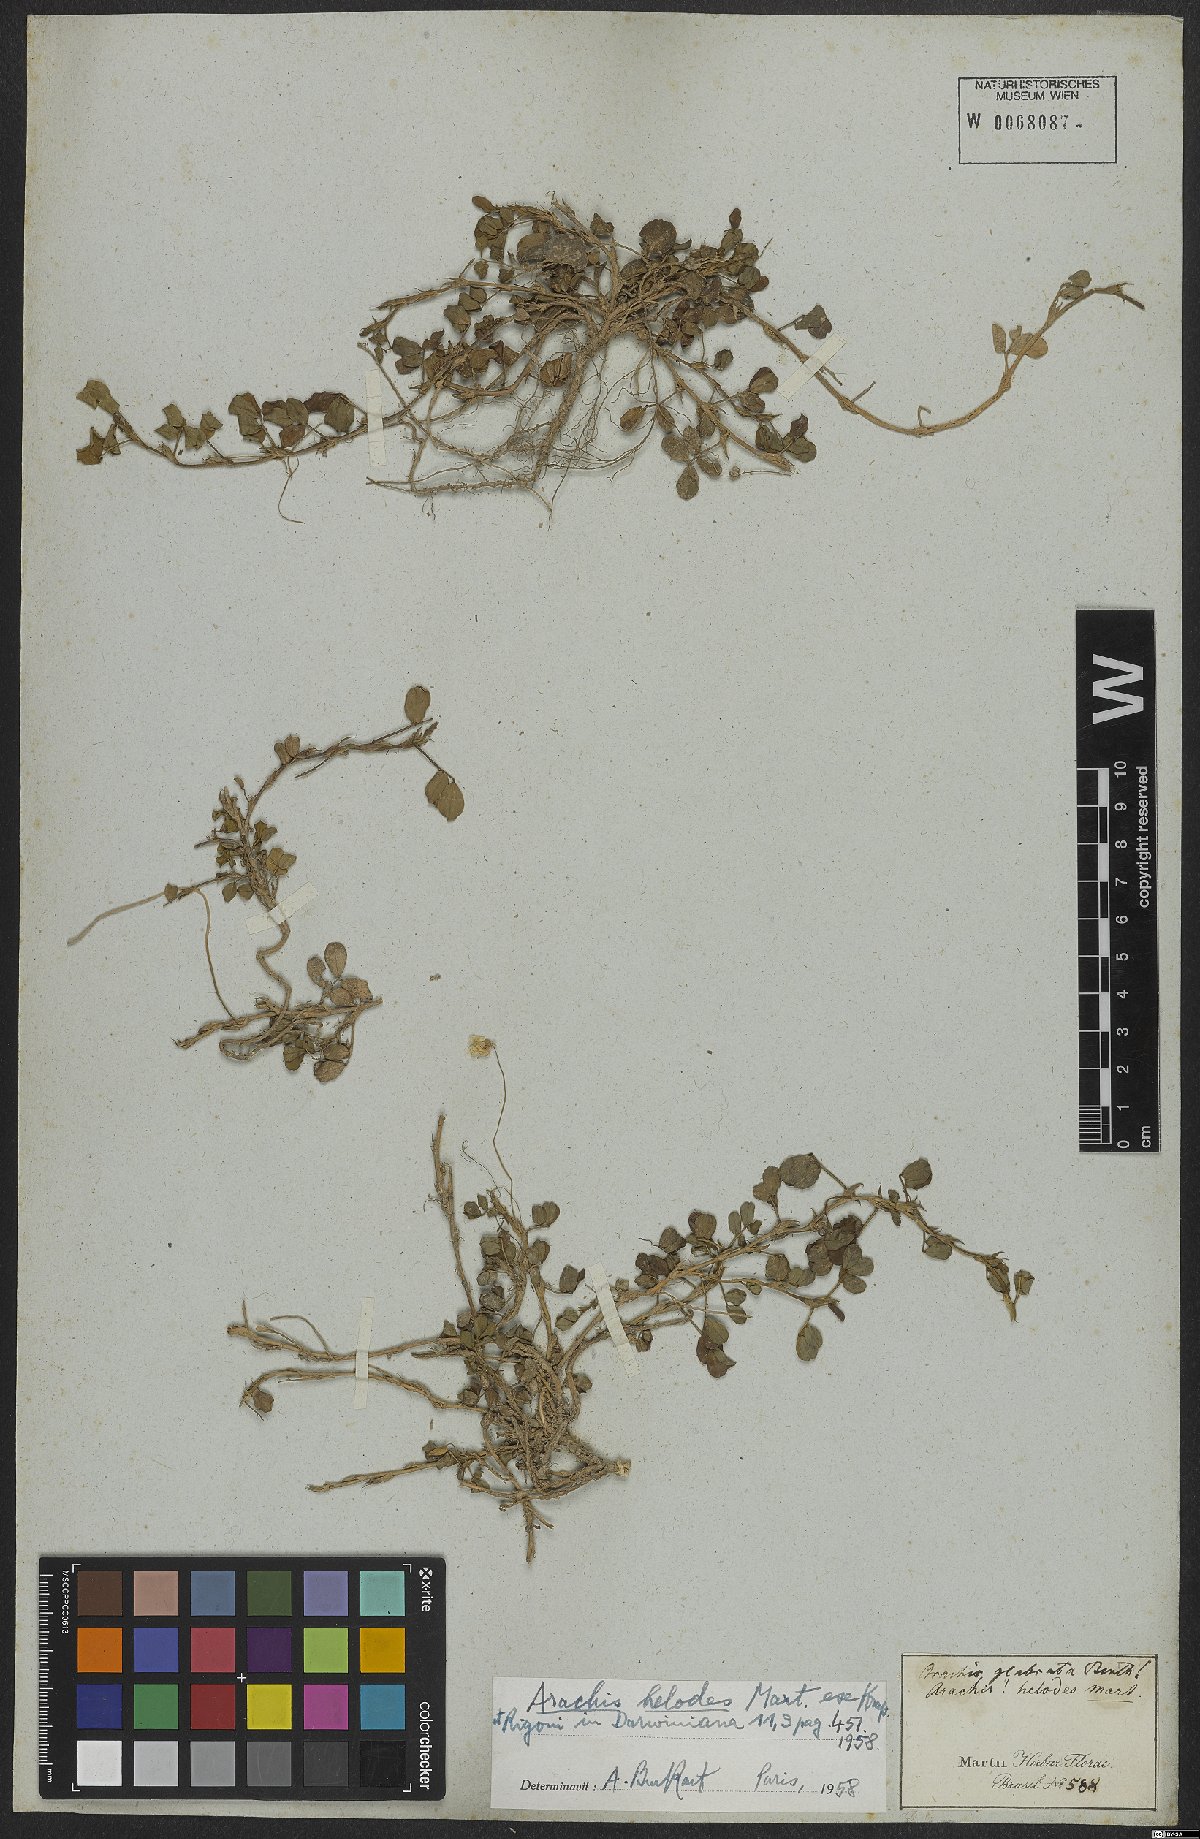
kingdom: Plantae
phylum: Tracheophyta
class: Magnoliopsida
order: Fabales
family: Fabaceae
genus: Arachis
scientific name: Arachis helodes
